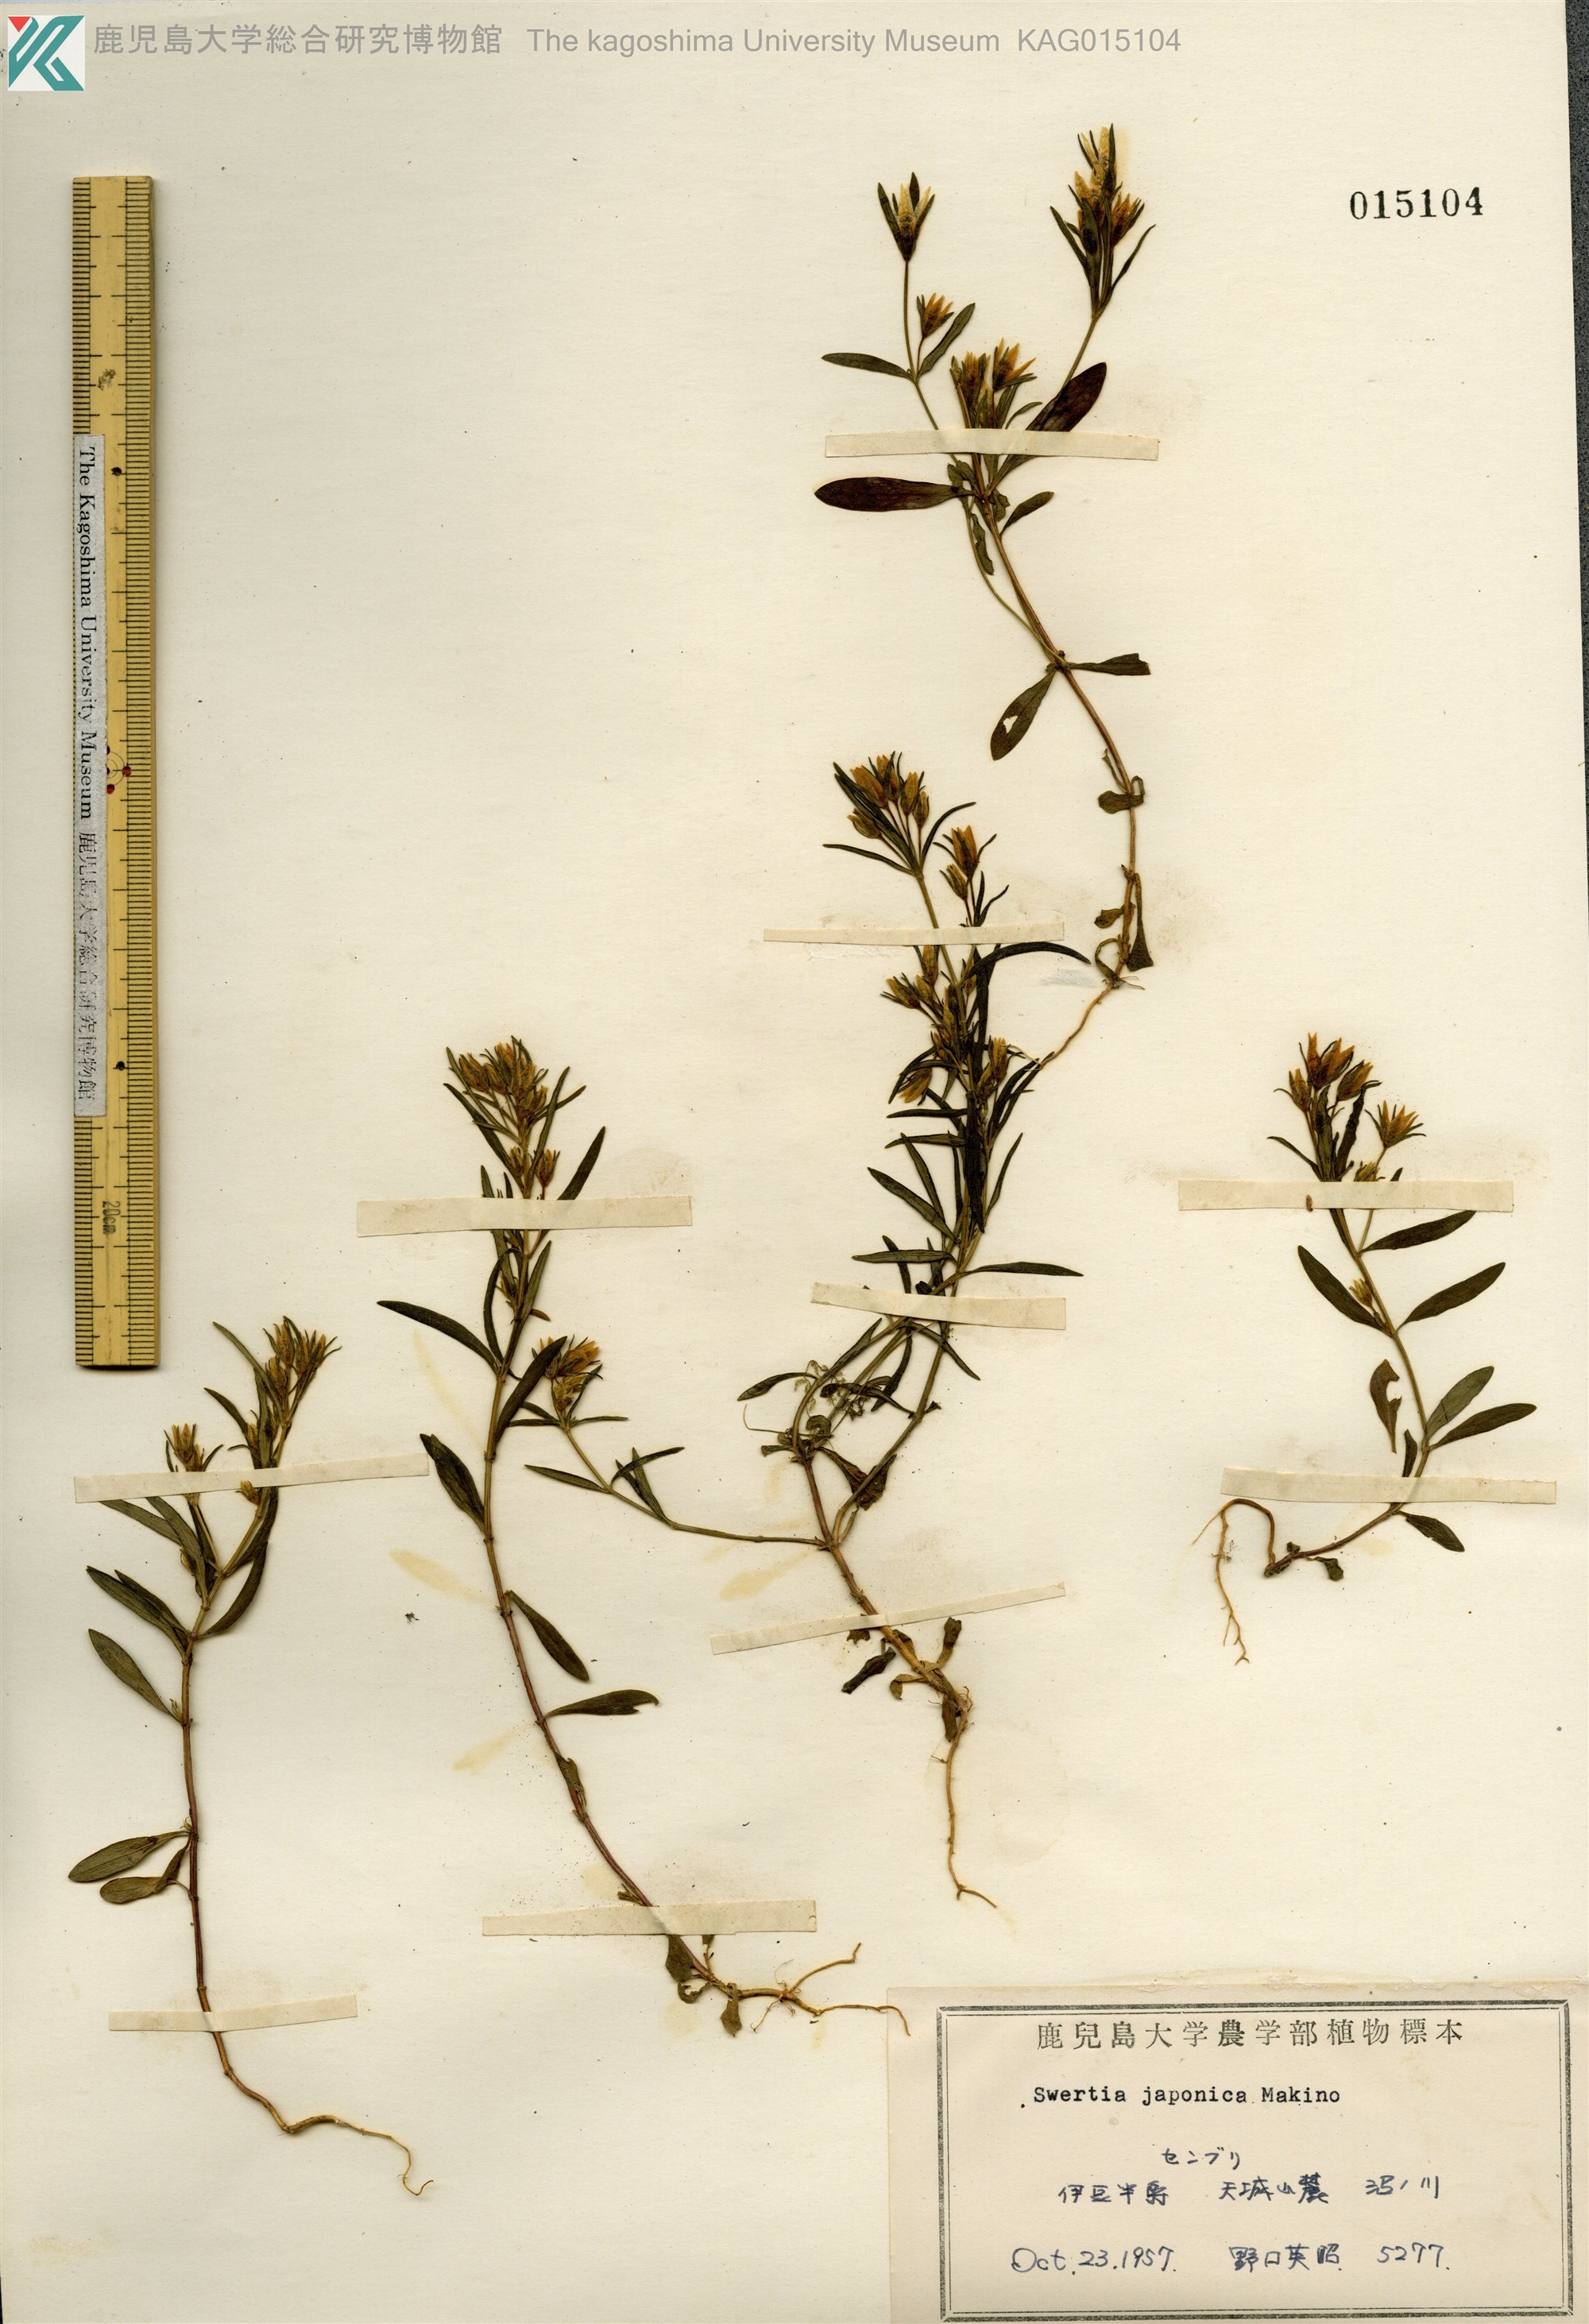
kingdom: Plantae
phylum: Tracheophyta
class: Magnoliopsida
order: Gentianales
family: Gentianaceae
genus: Swertia
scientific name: Swertia japonica
